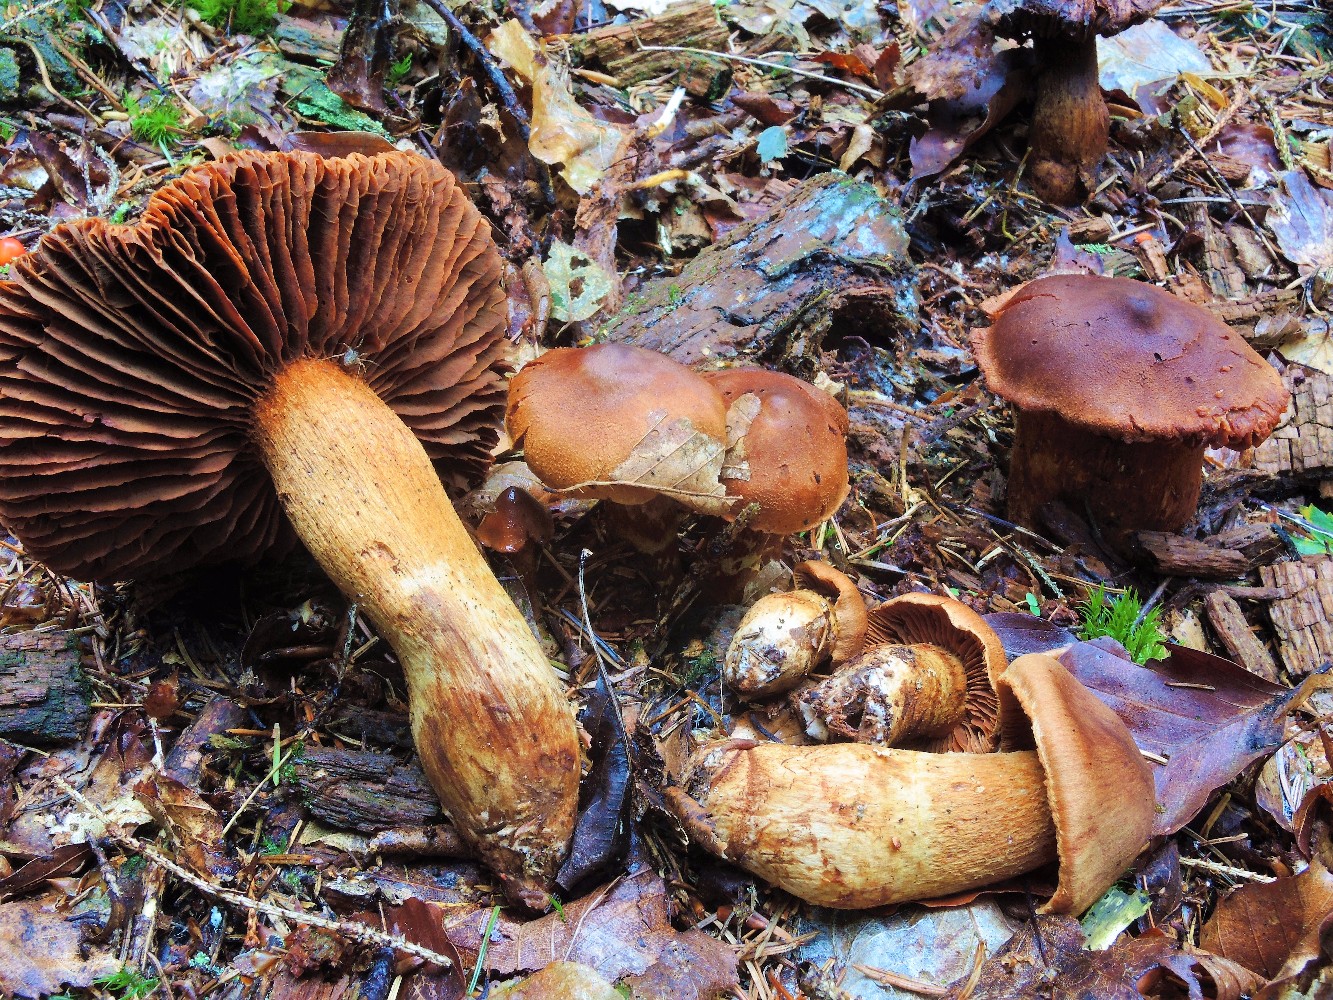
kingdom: Fungi
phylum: Basidiomycota
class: Agaricomycetes
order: Agaricales
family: Cortinariaceae
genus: Cortinarius
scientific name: Cortinarius rubellus
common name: puklet gift-slørhat
